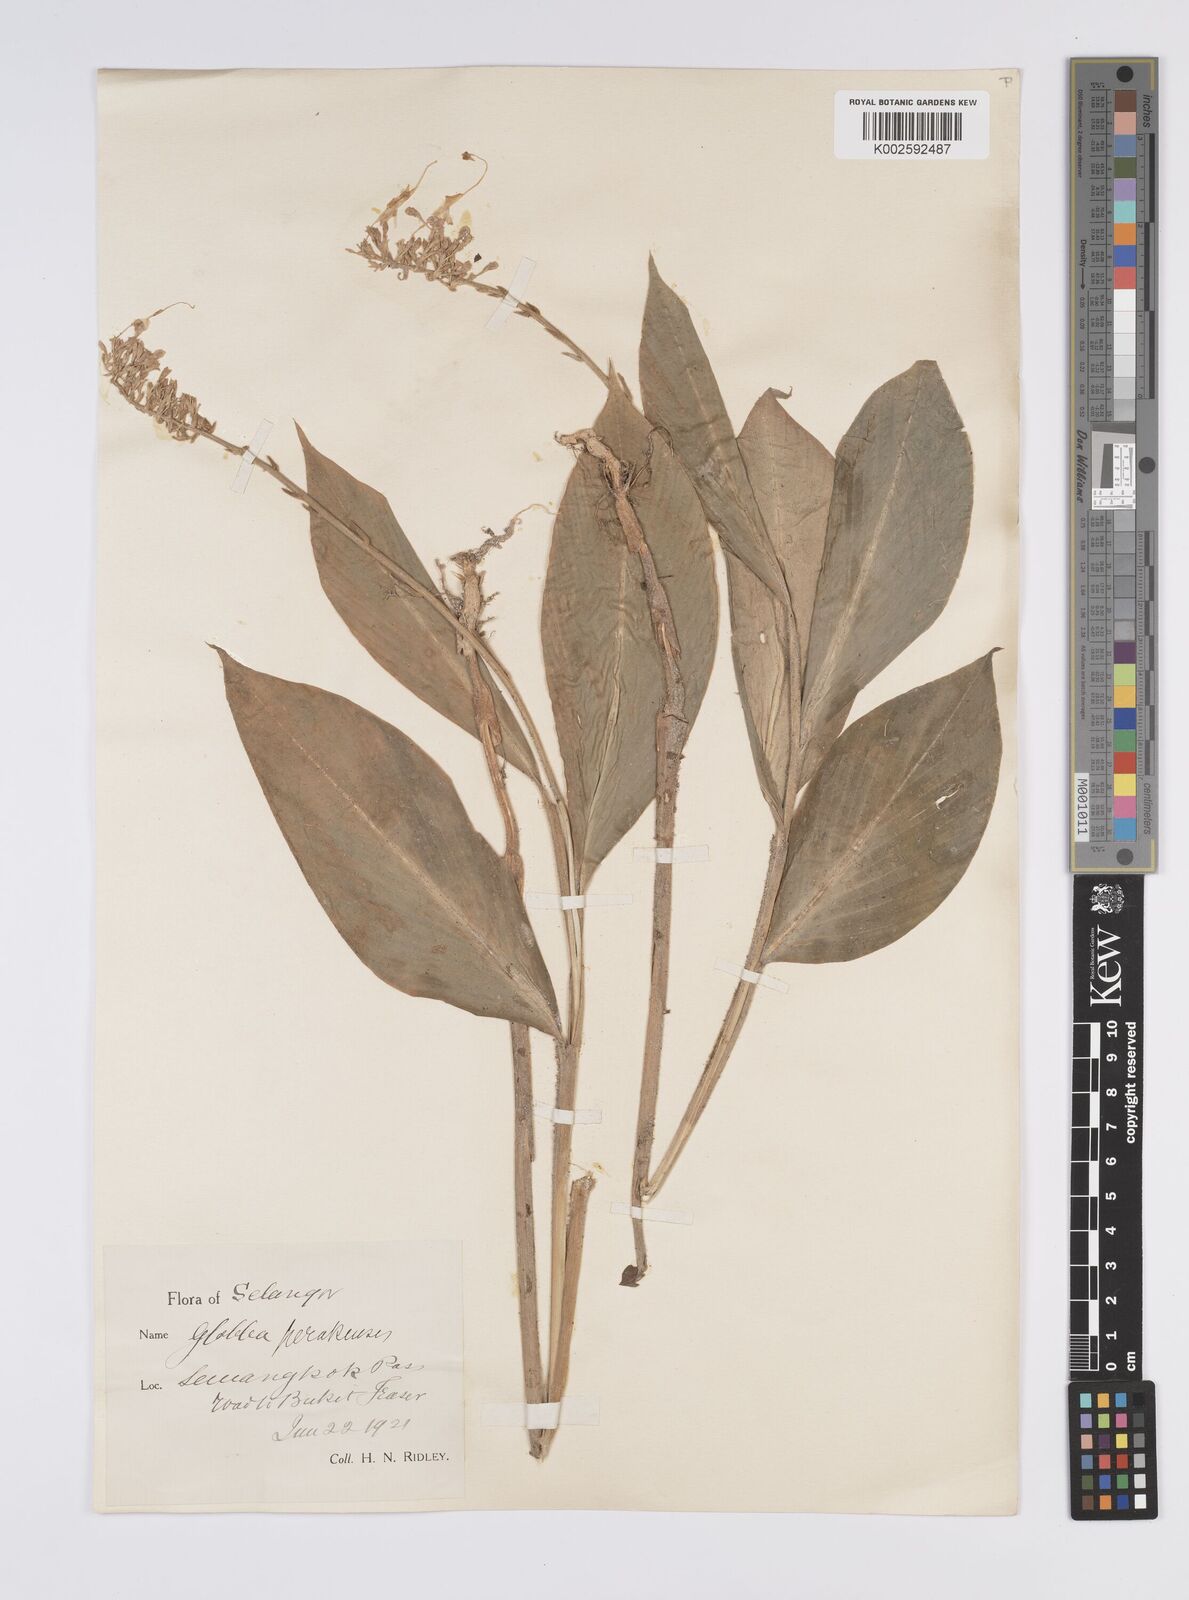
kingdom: Plantae
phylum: Tracheophyta
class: Liliopsida
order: Zingiberales
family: Zingiberaceae
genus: Globba
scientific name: Globba aurantiaca
